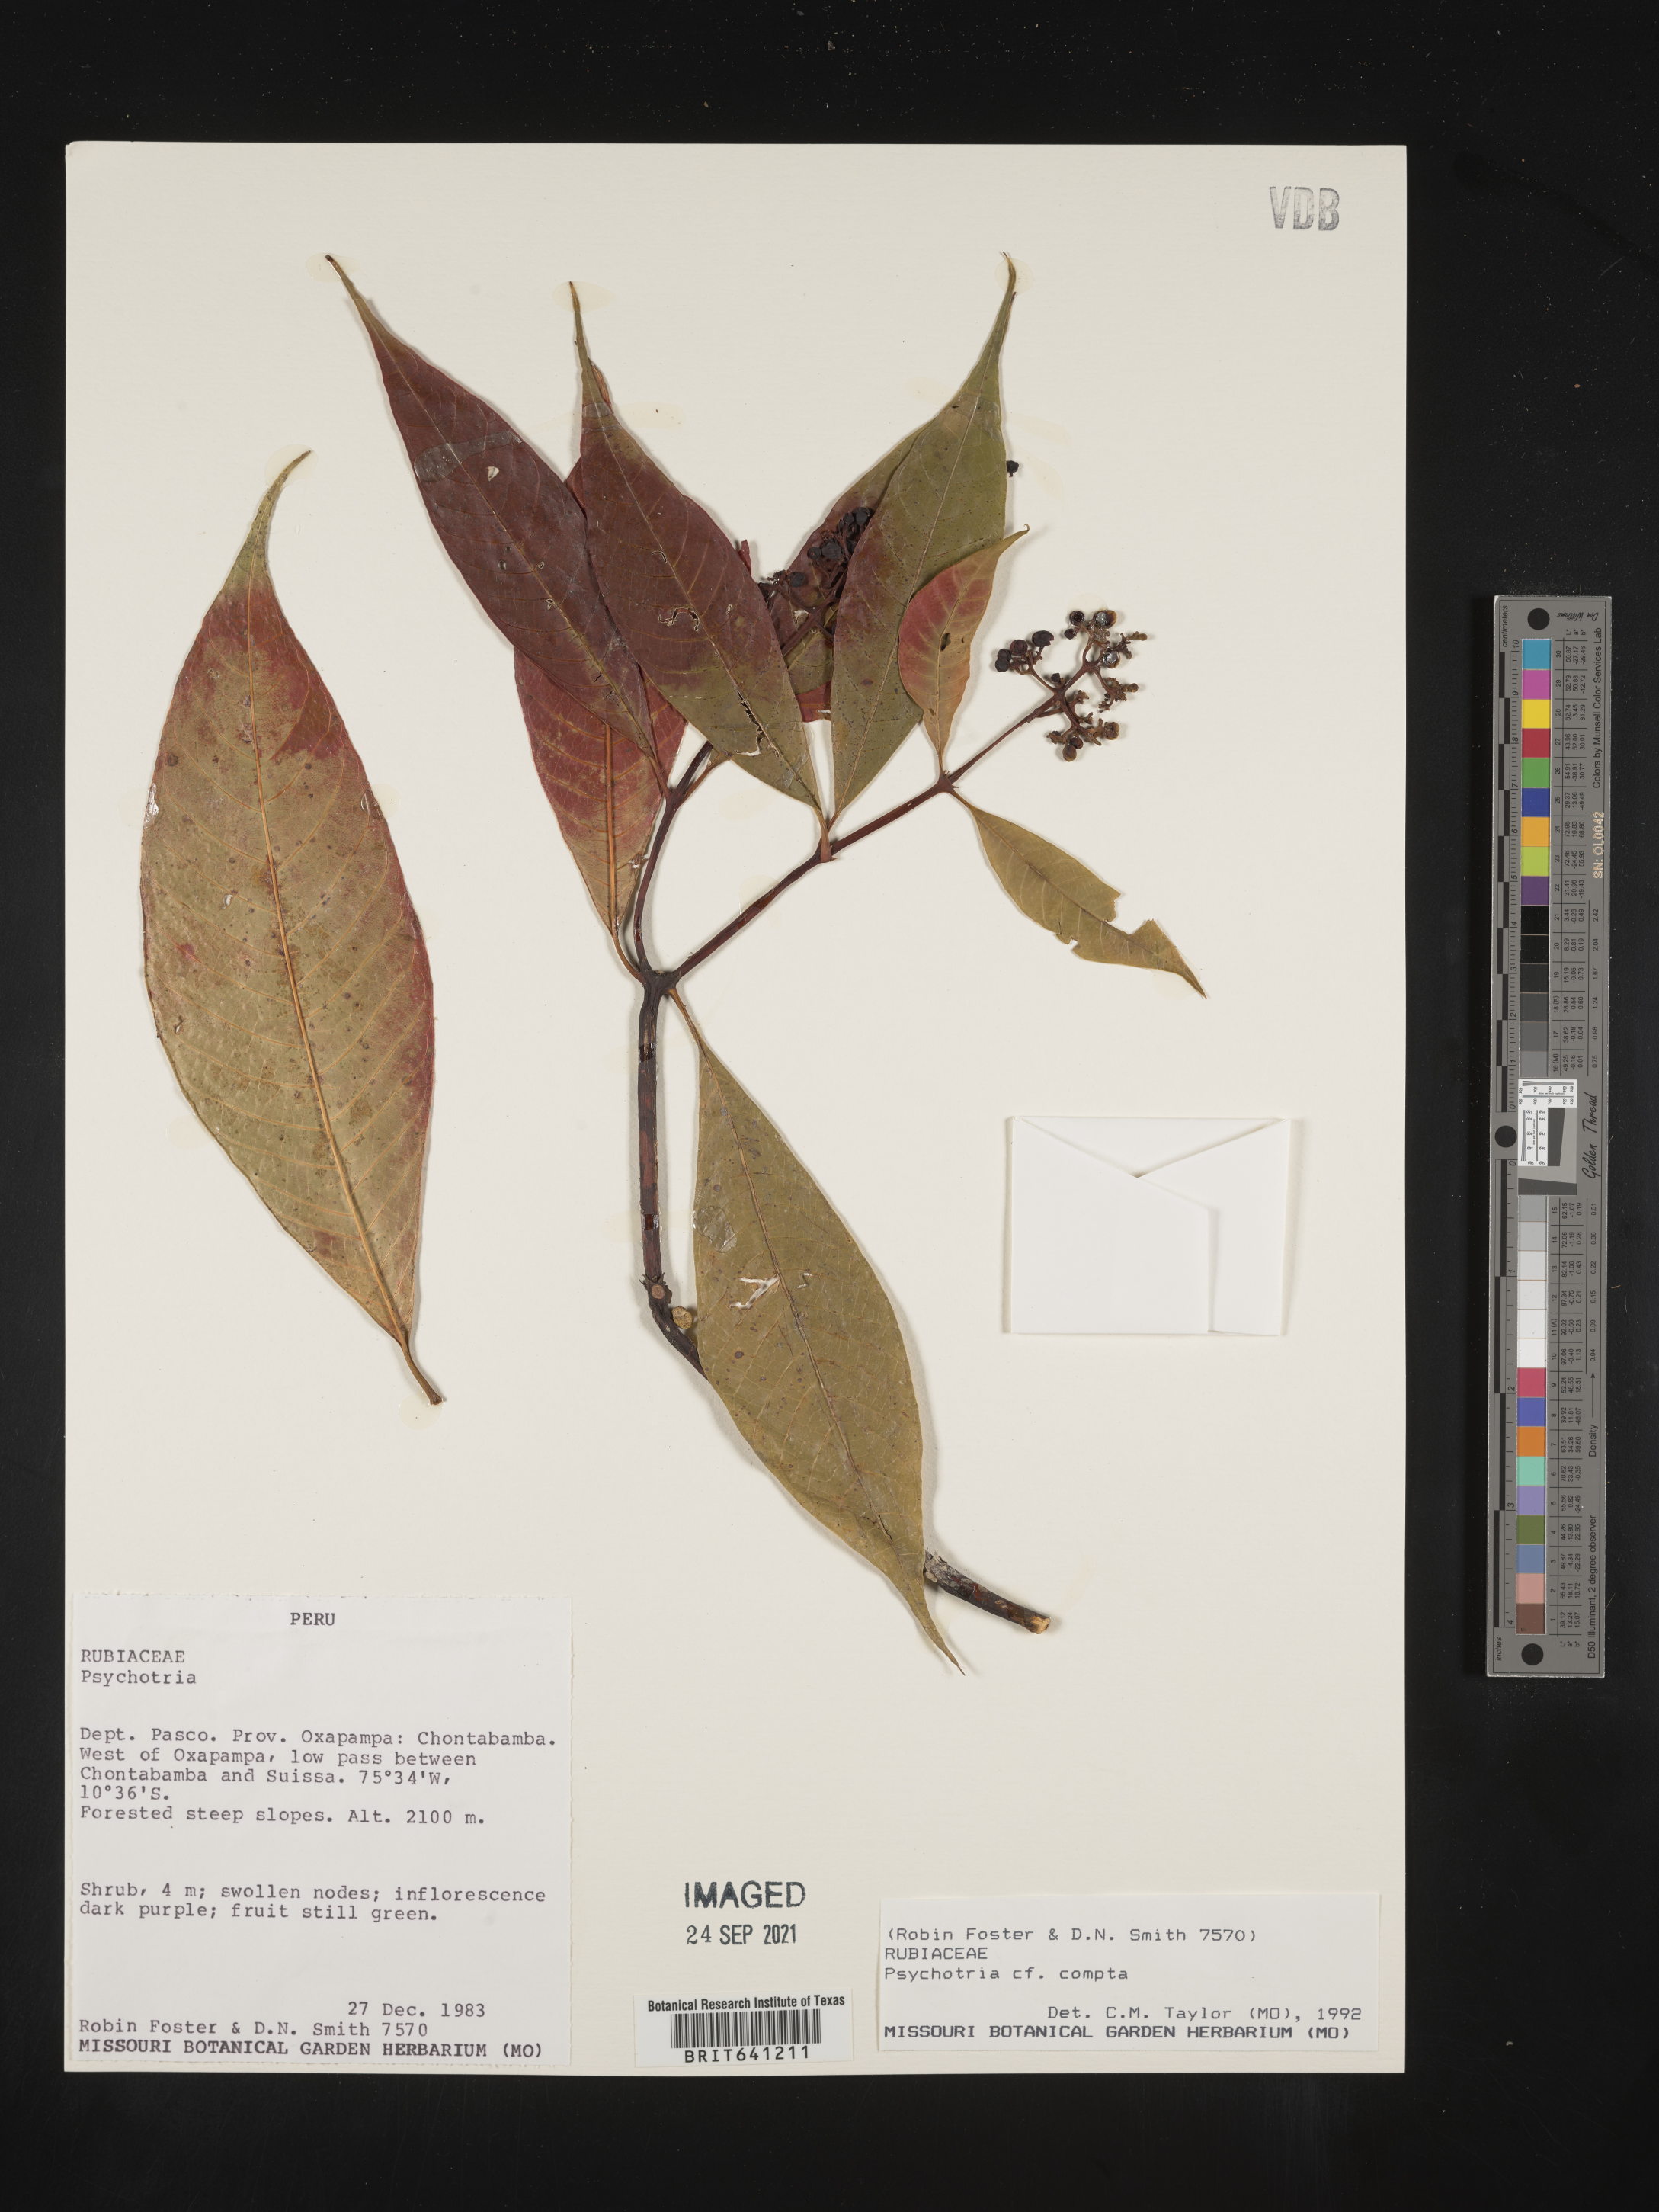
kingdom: Plantae
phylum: Tracheophyta
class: Magnoliopsida
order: Gentianales
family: Rubiaceae
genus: Psychotria
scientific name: Psychotria
